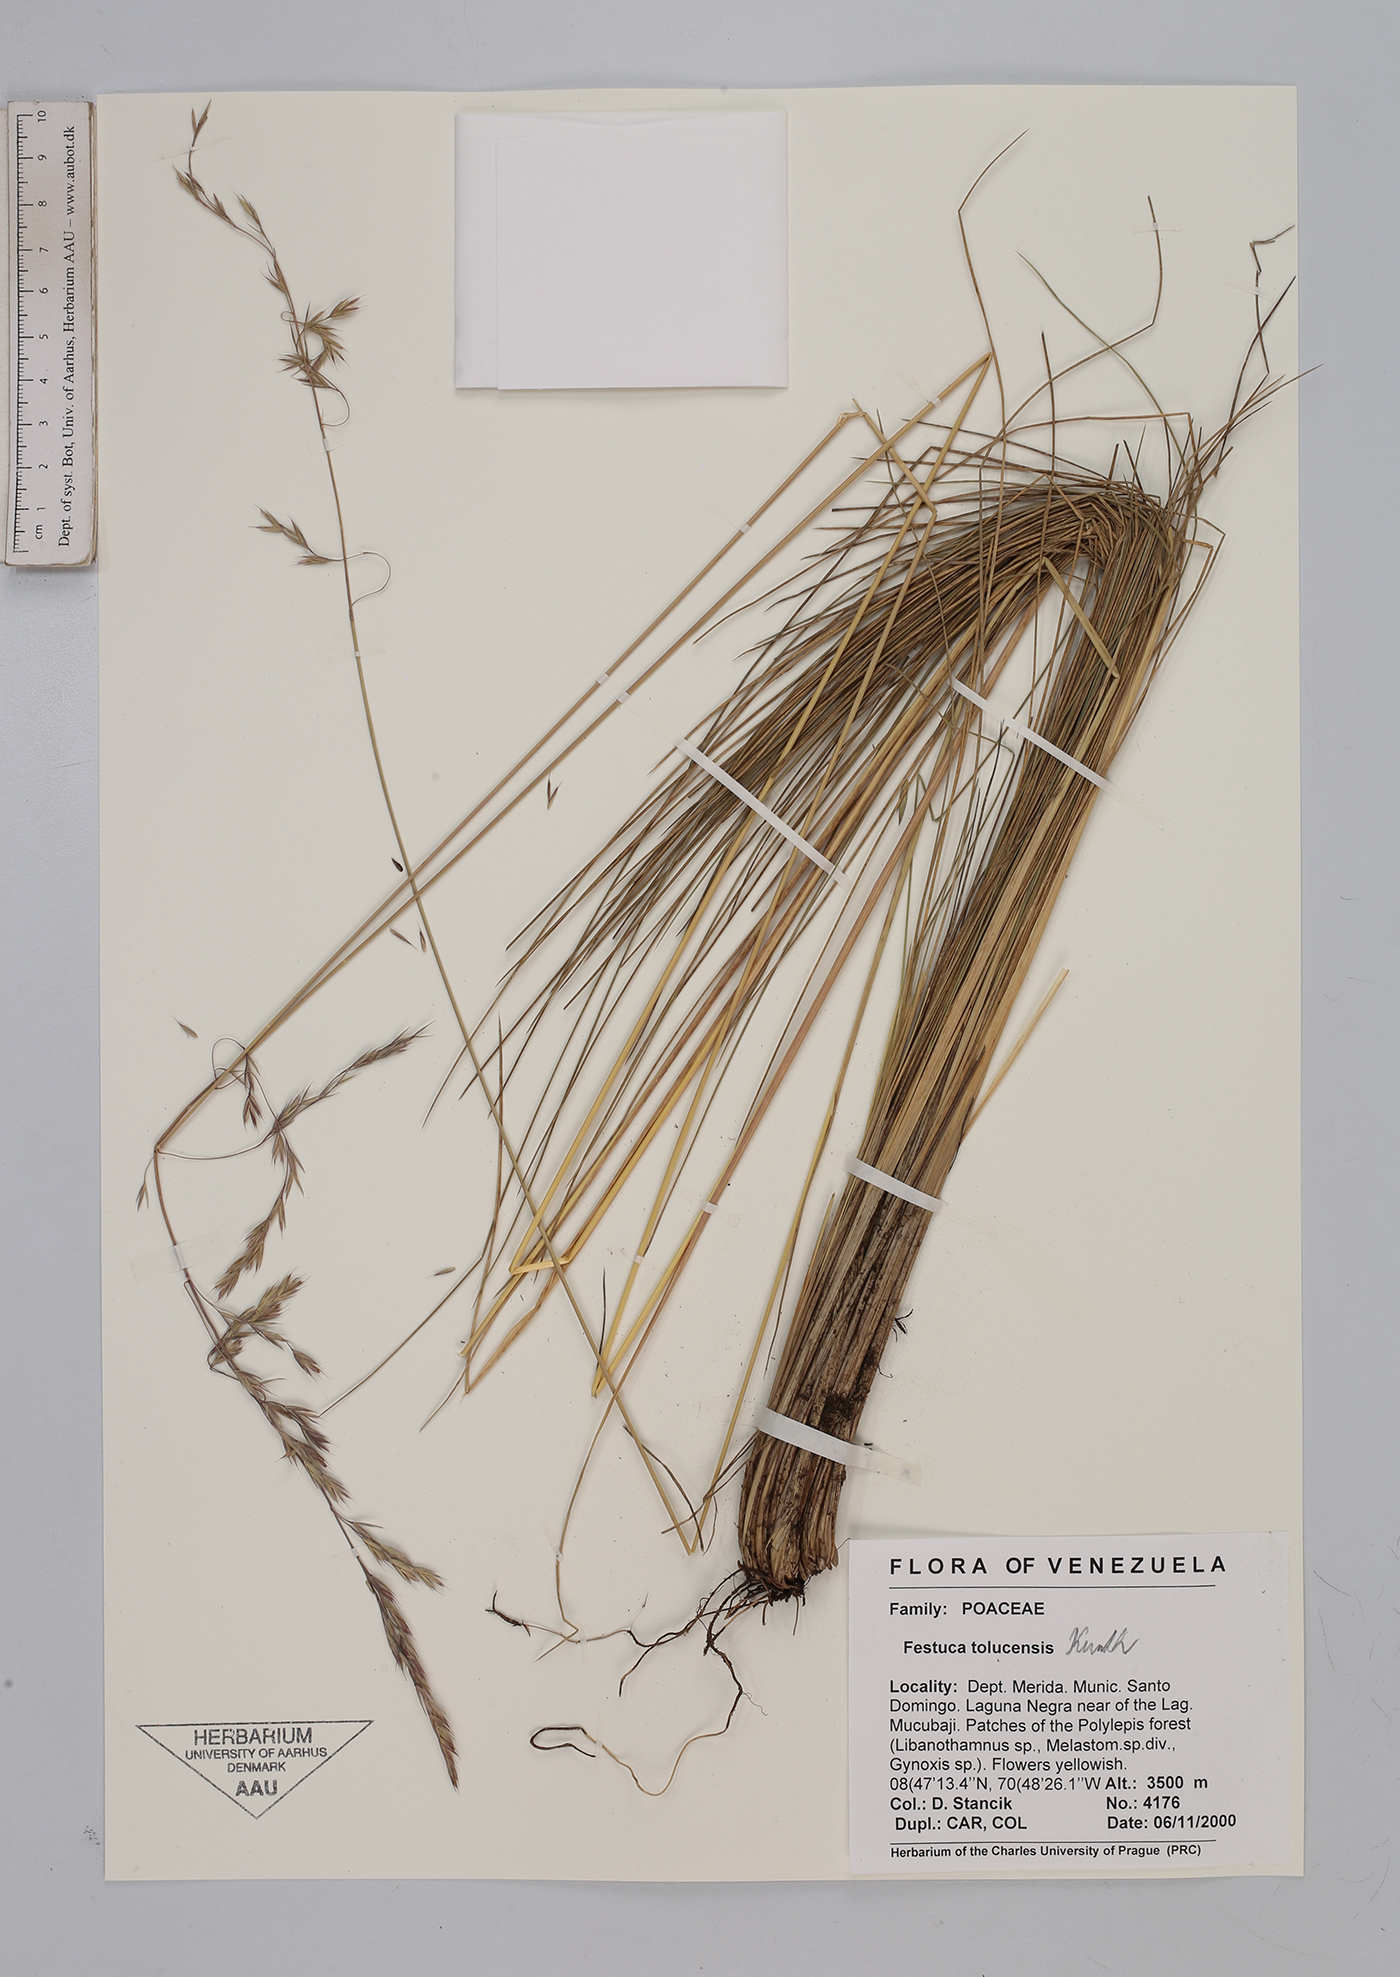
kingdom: Plantae
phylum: Tracheophyta
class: Liliopsida
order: Poales
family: Poaceae
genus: Festuca
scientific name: Festuca tolucensis
